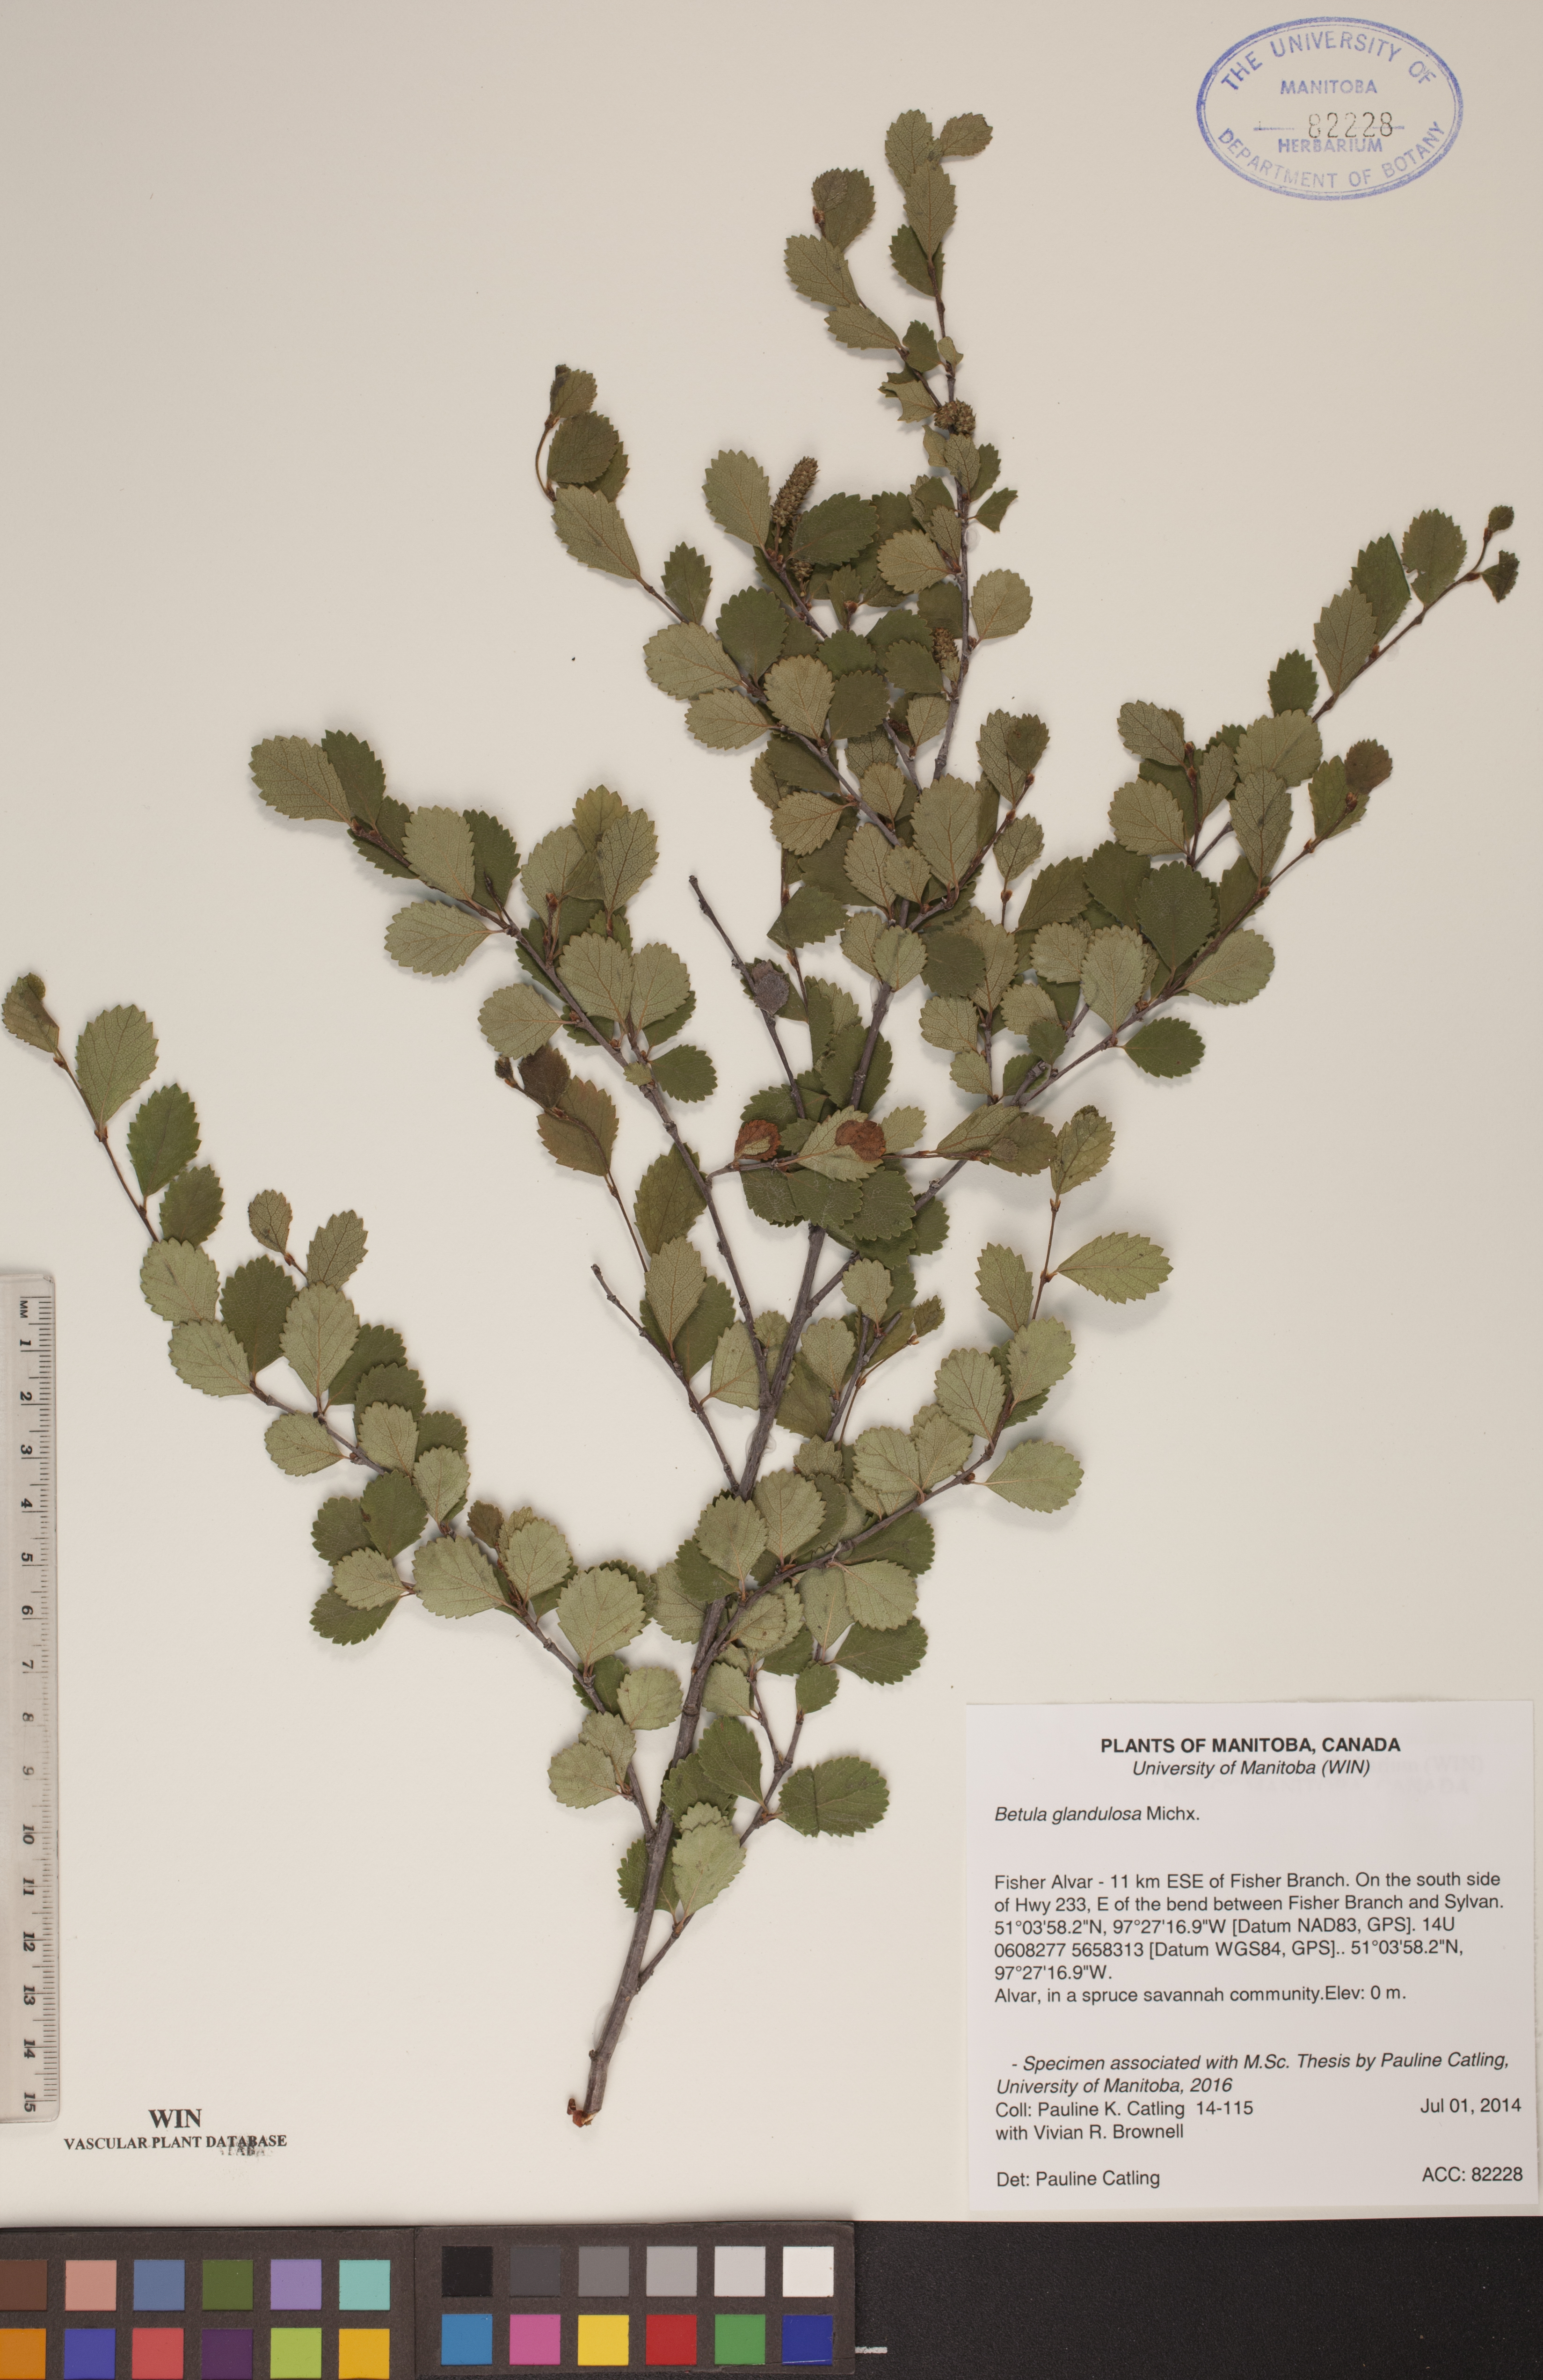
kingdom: Plantae
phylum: Tracheophyta
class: Magnoliopsida
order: Fagales
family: Betulaceae
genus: Betula
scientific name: Betula glandulosa
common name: Dwarf birch
